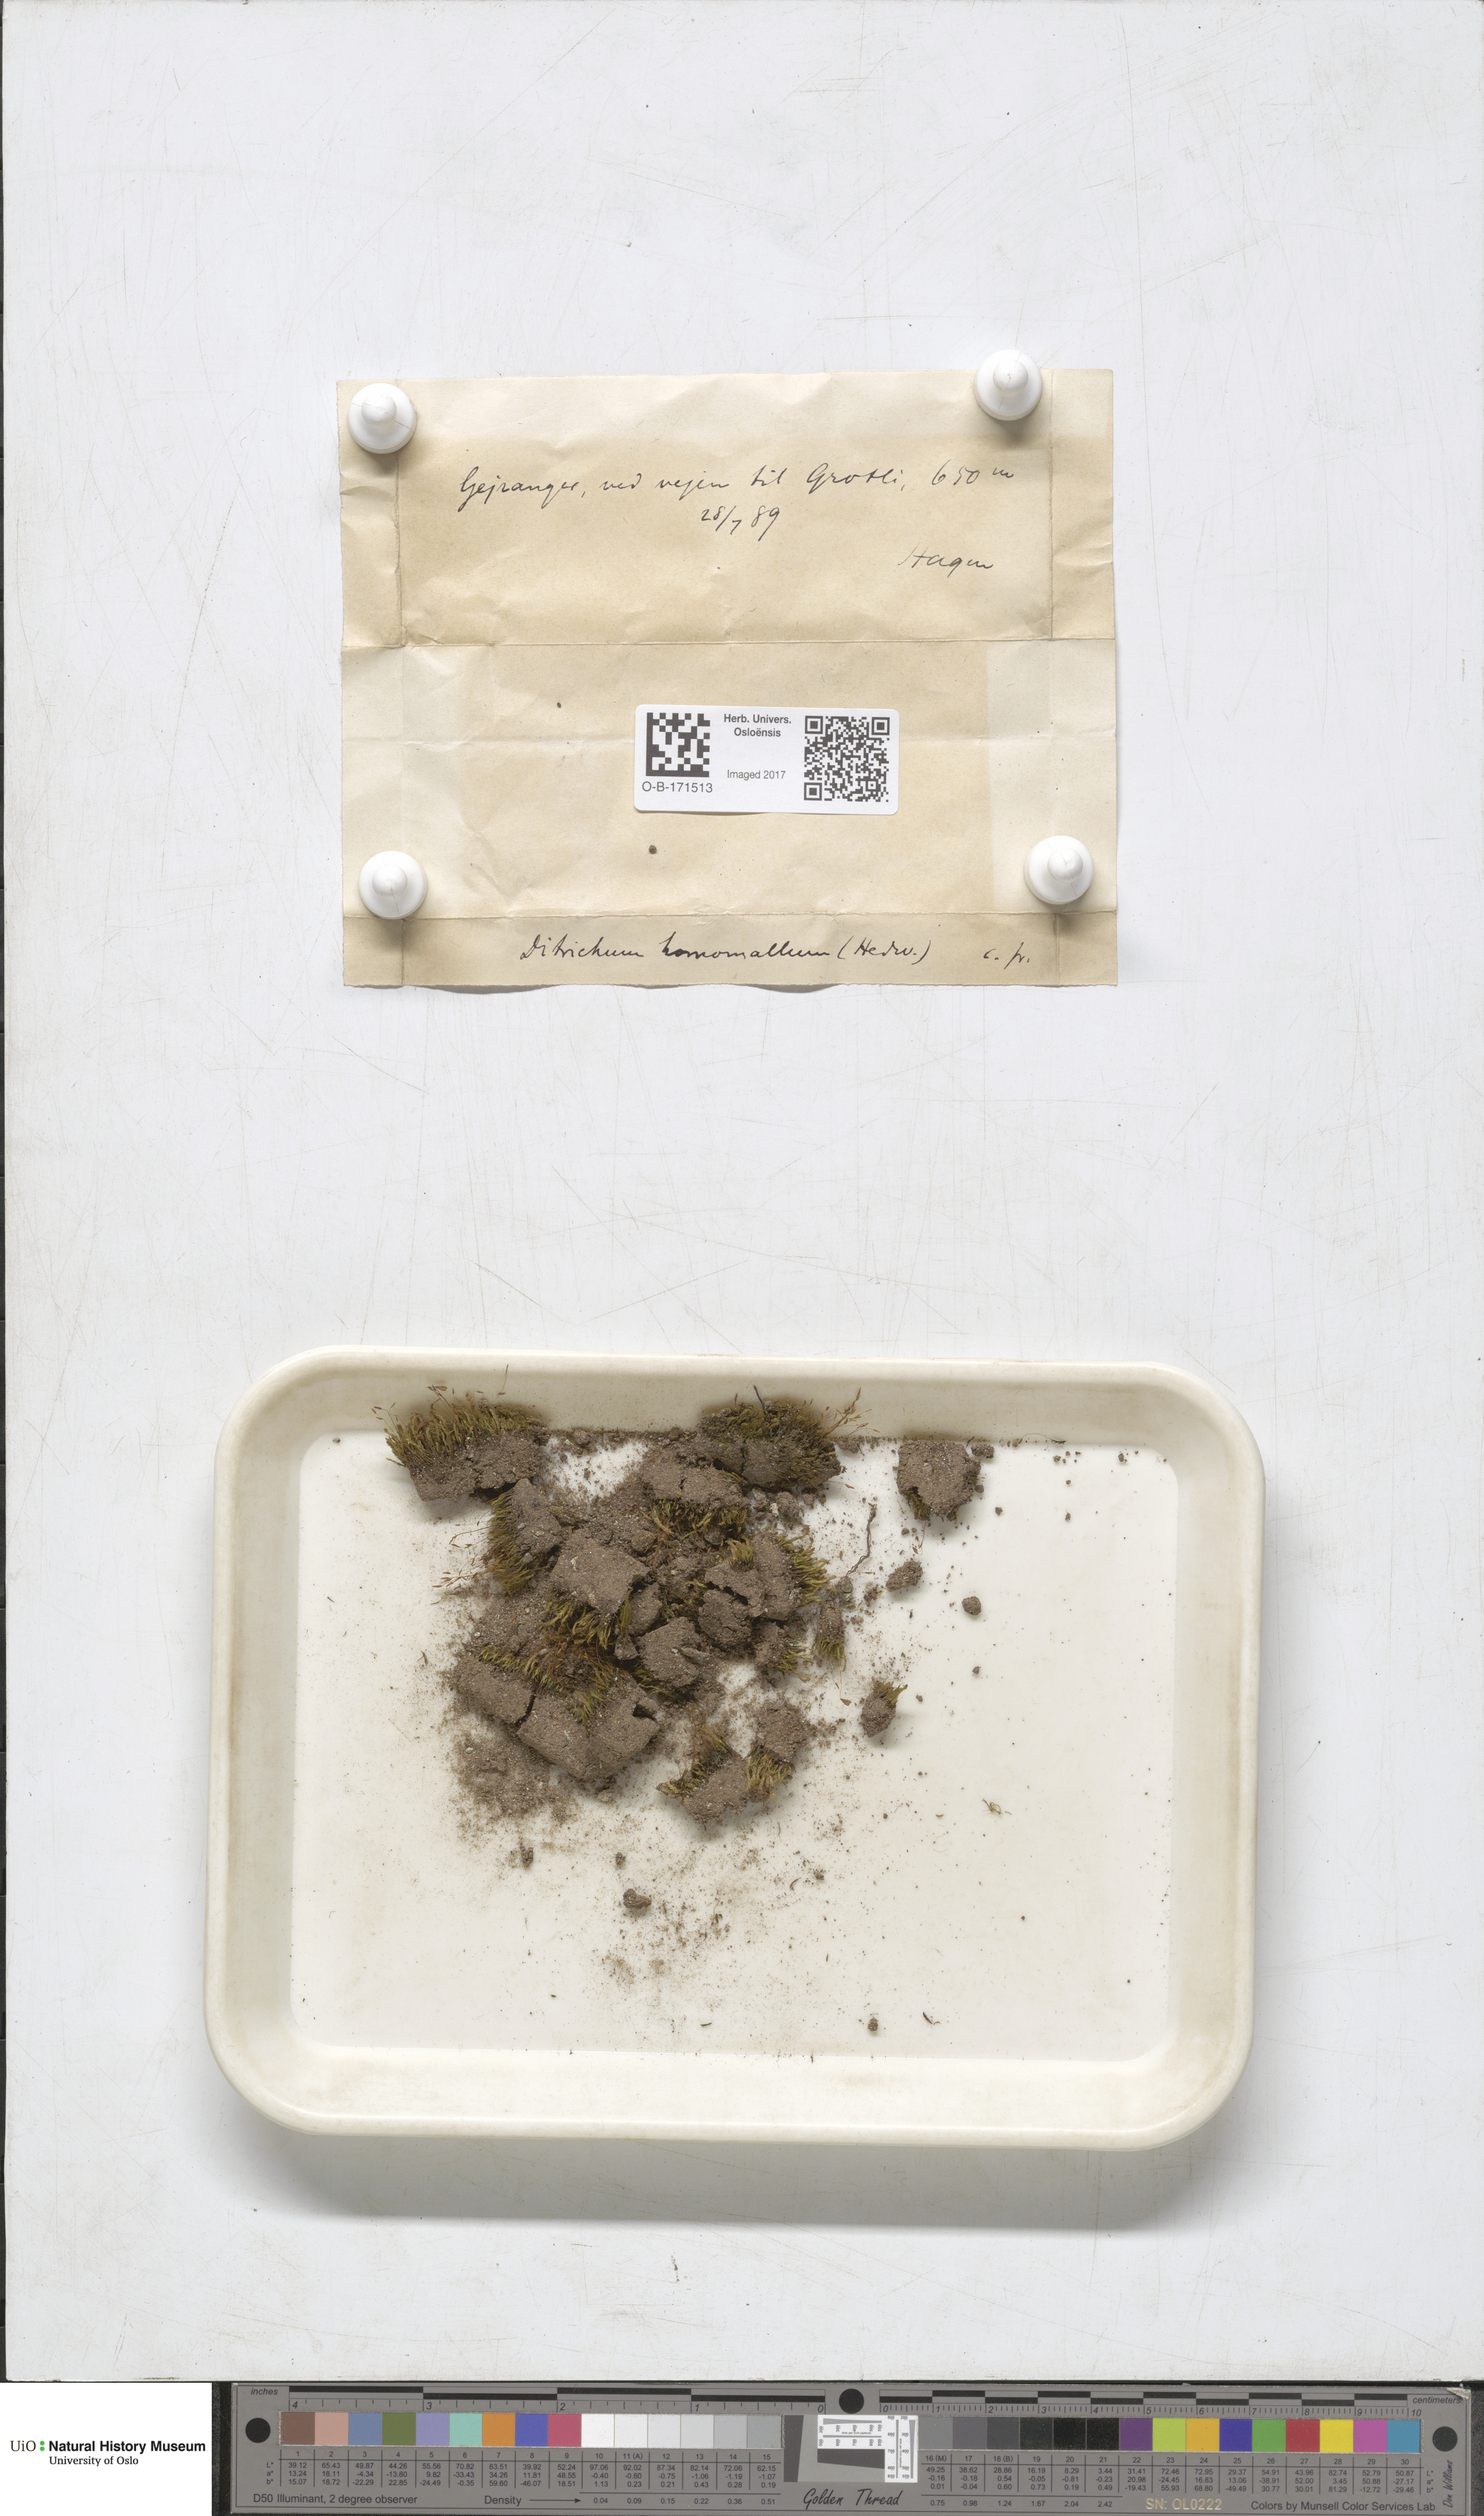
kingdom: Plantae
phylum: Bryophyta
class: Bryopsida
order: Dicranales
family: Ditrichaceae
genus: Ditrichum
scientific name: Ditrichum heteromallum
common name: Curve-leaved ditrichum
